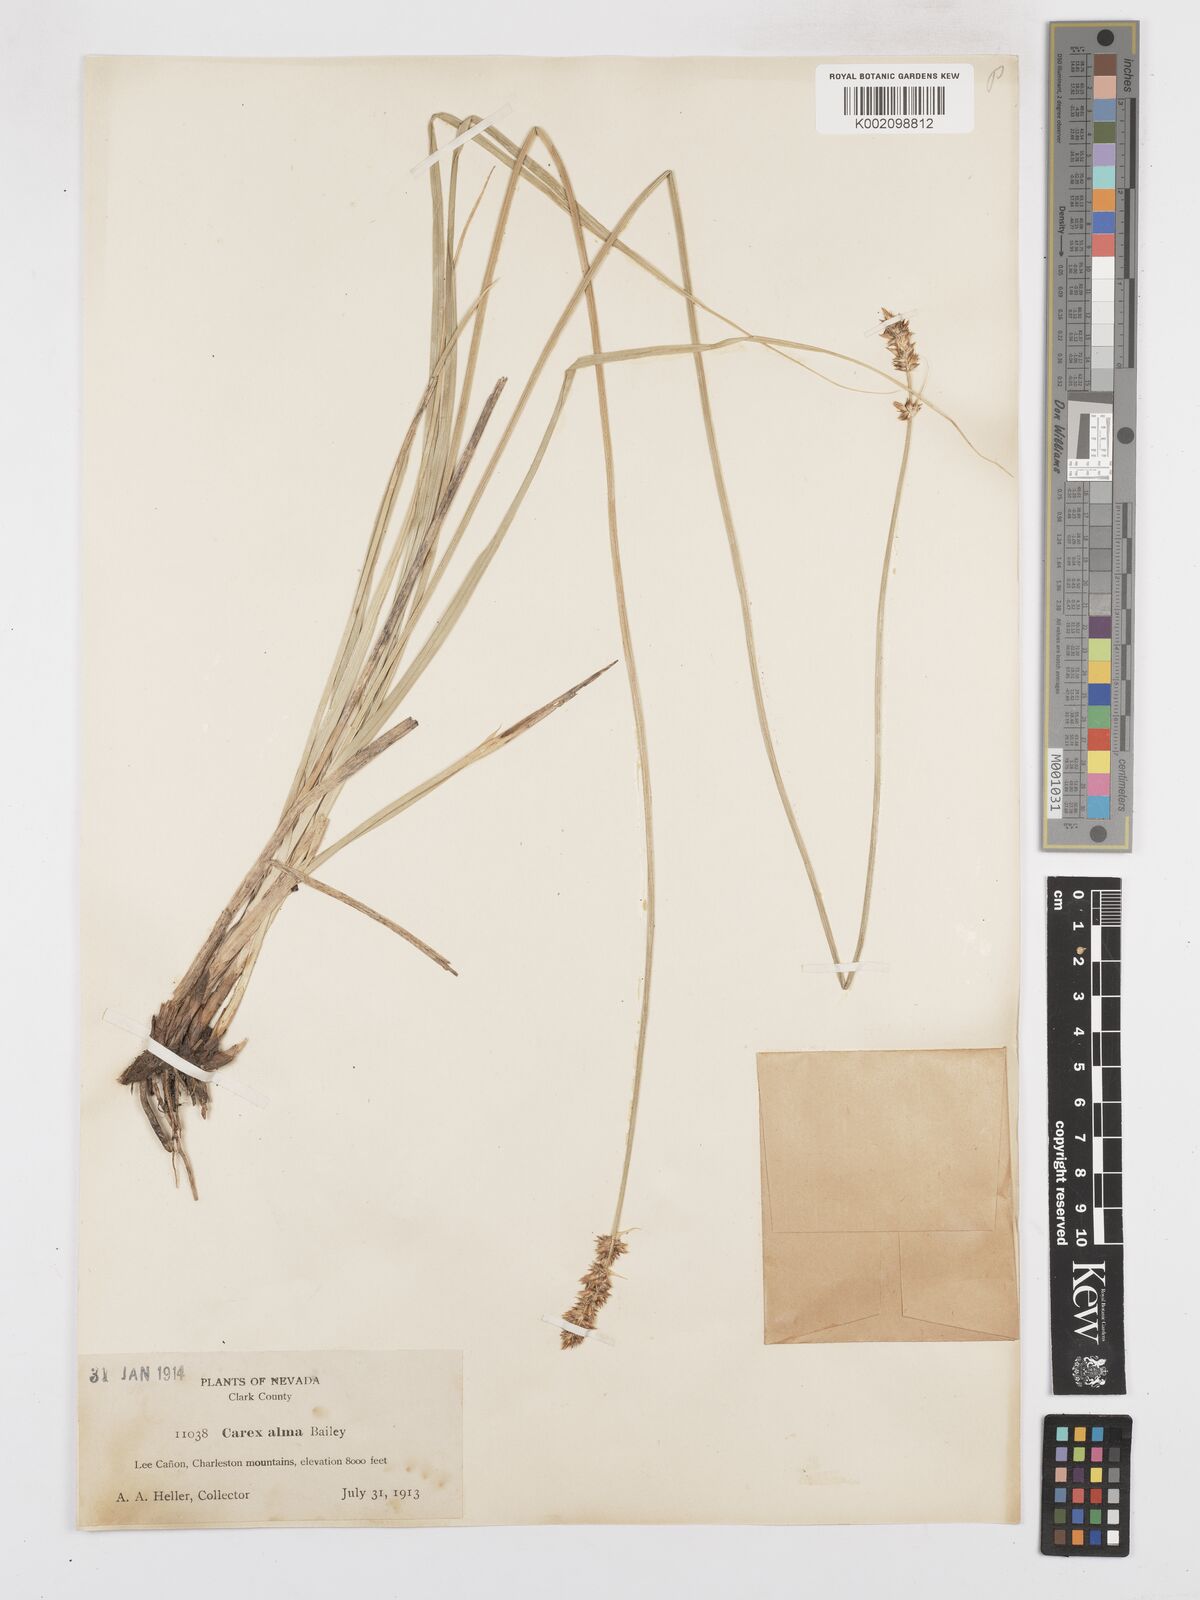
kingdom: Plantae
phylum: Tracheophyta
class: Liliopsida
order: Poales
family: Cyperaceae
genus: Carex
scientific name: Carex alma
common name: Alma sedge
